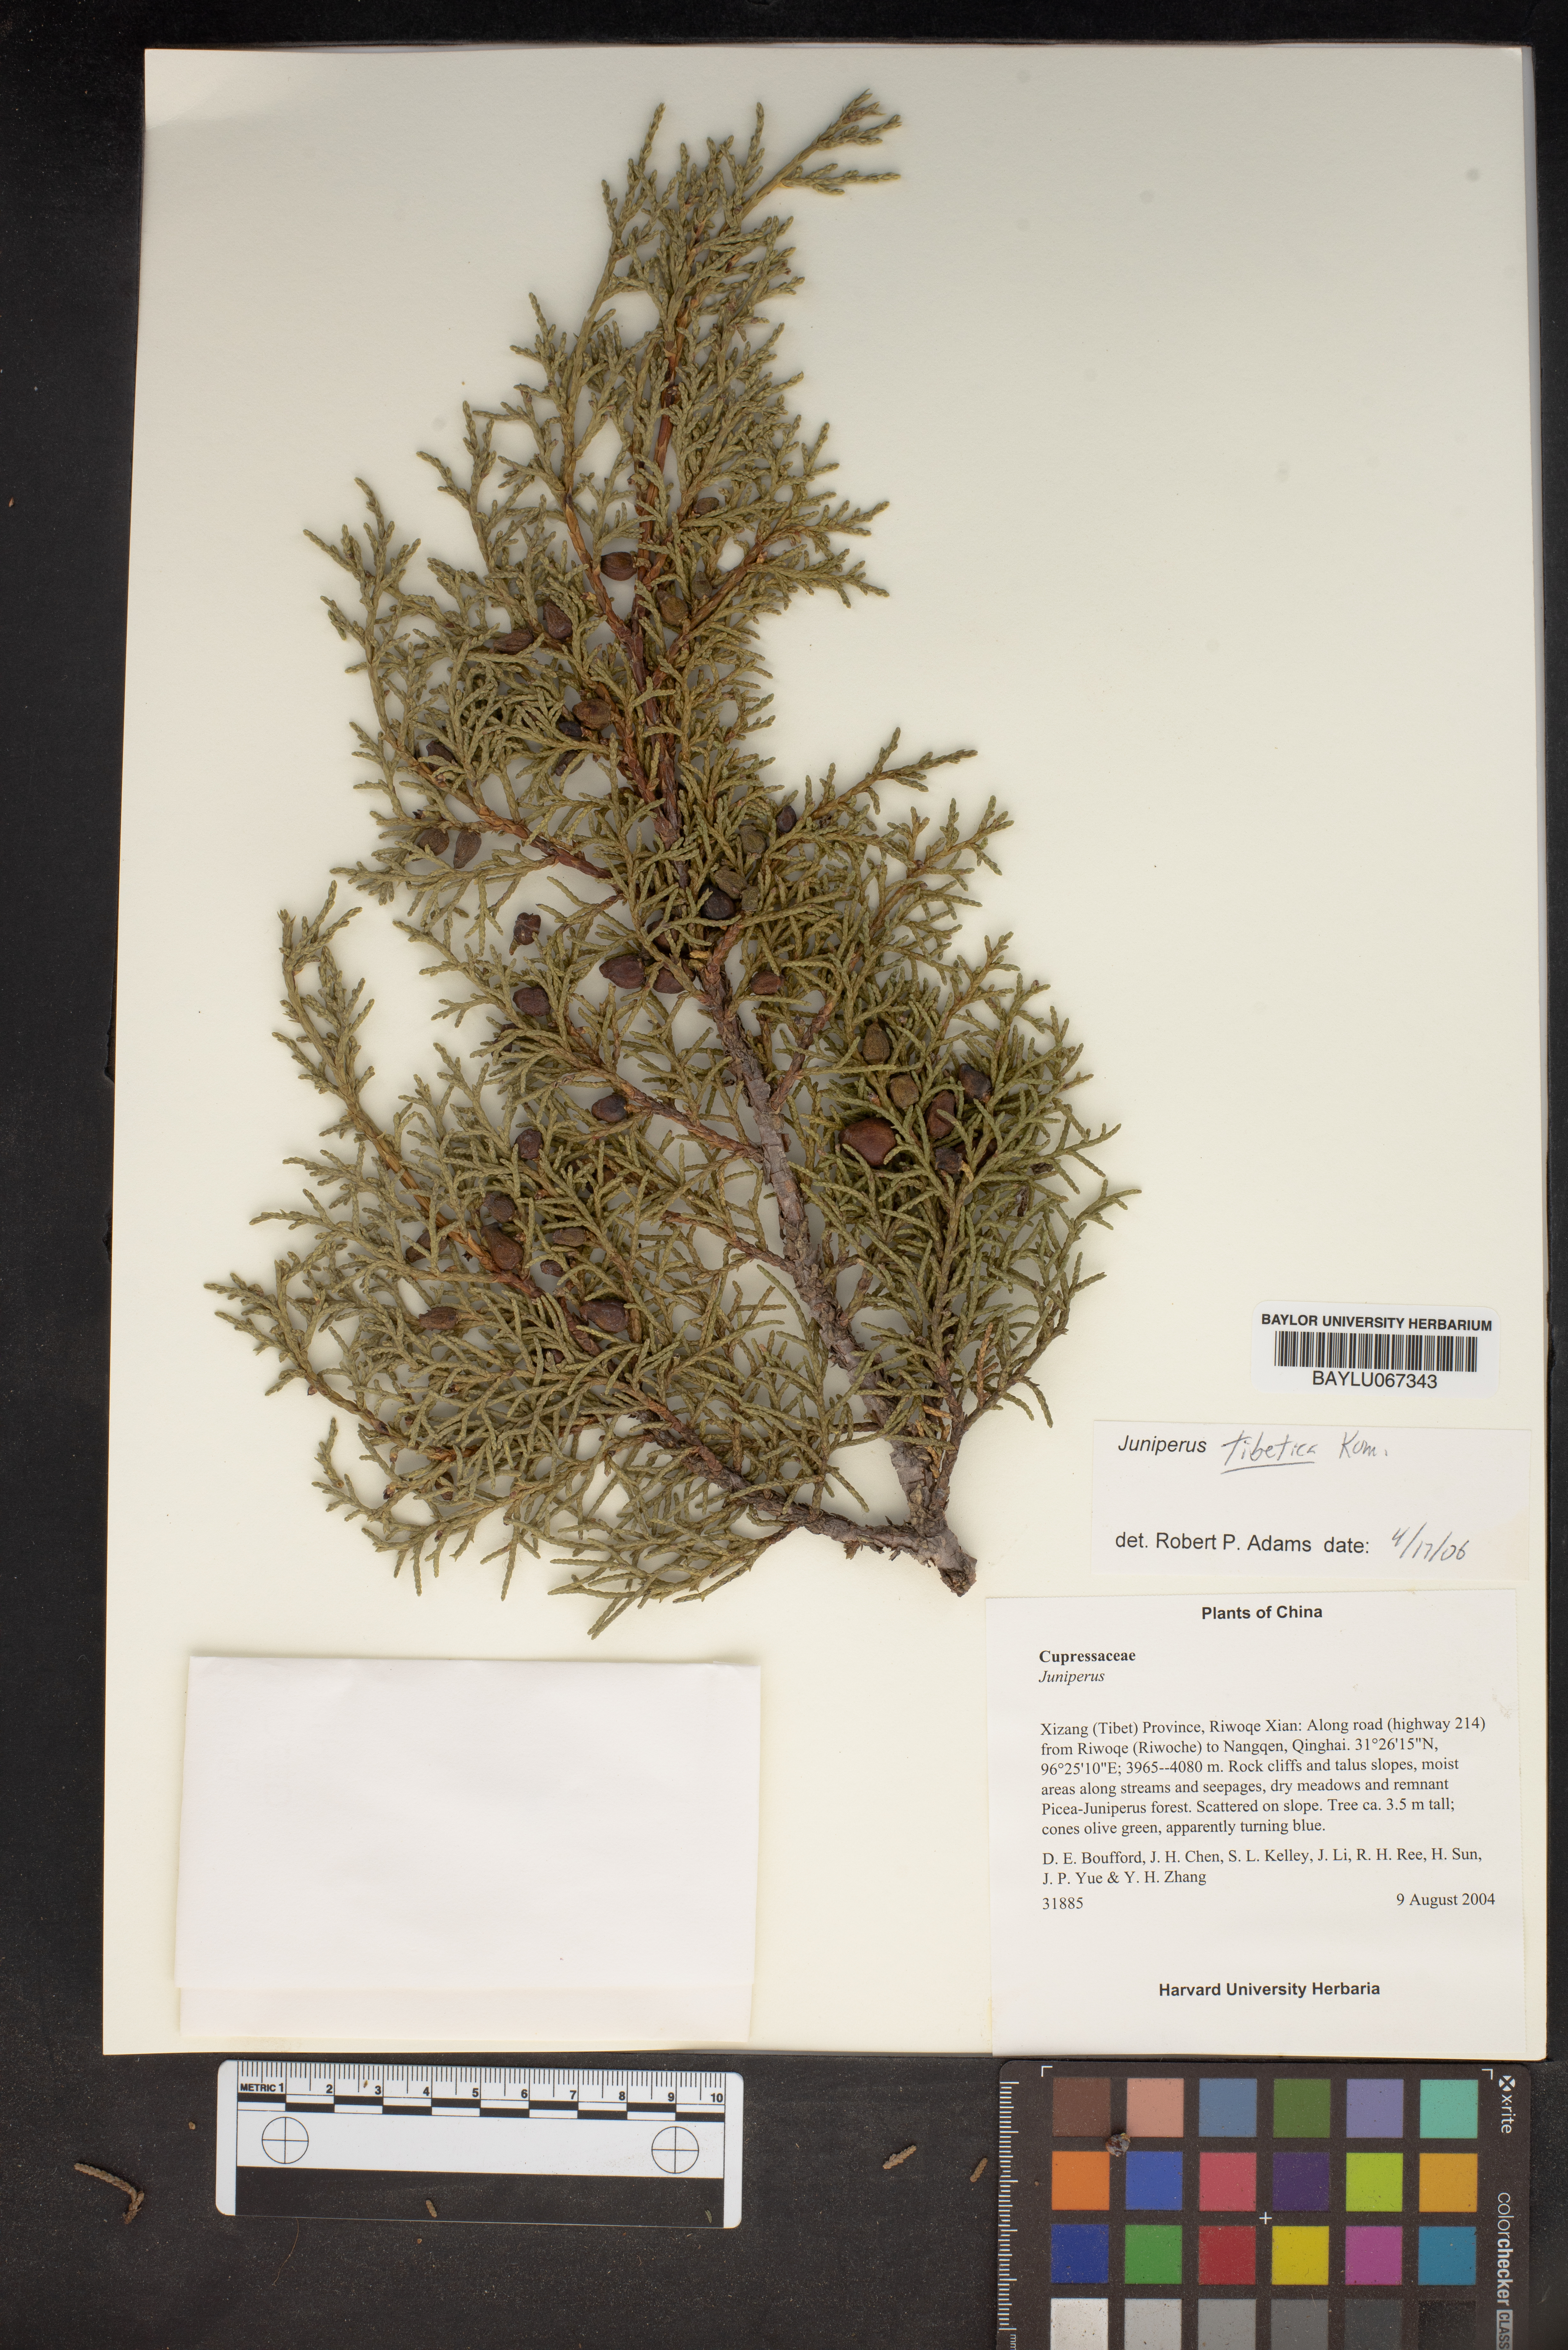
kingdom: Plantae
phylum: Tracheophyta
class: Pinopsida
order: Pinales
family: Cupressaceae
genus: Juniperus
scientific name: Juniperus tibetica
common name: Tibetan juniper
